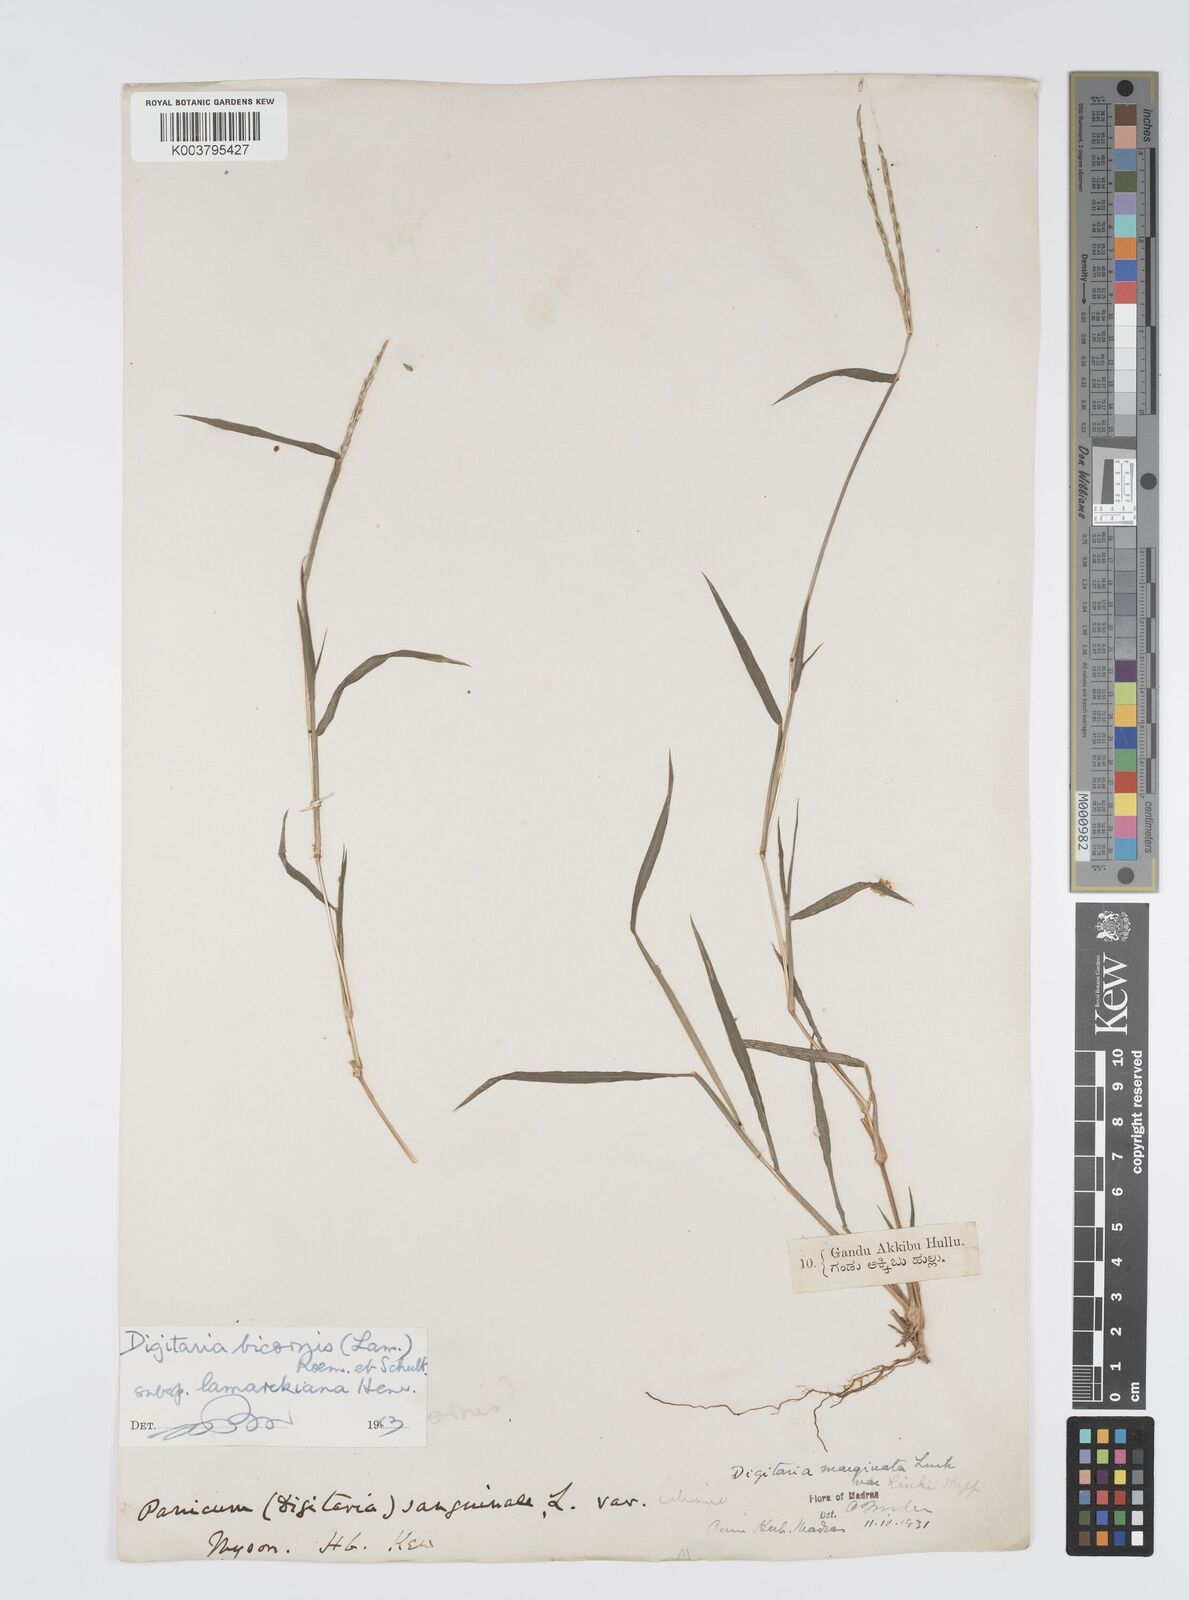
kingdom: Plantae
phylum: Tracheophyta
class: Liliopsida
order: Poales
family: Poaceae
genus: Digitaria
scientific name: Digitaria bicornis
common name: Asian crabgrass
